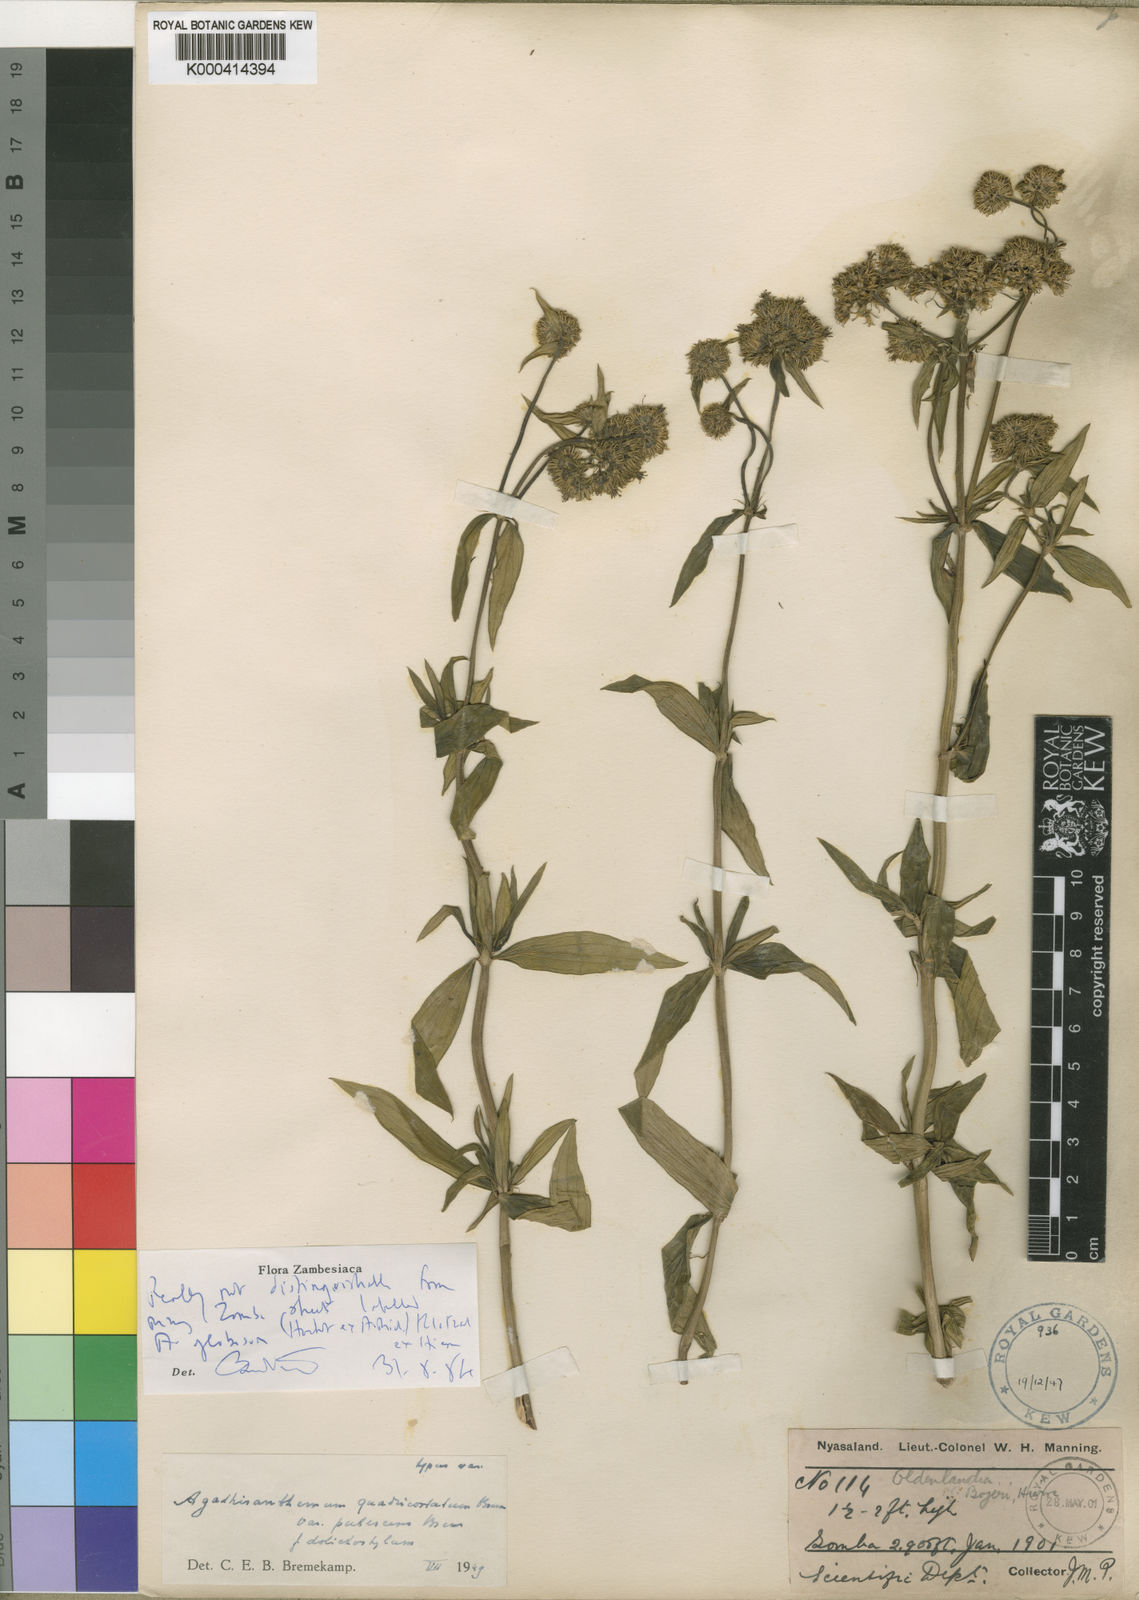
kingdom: Plantae
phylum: Tracheophyta
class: Magnoliopsida
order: Gentianales
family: Rubiaceae
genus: Agathisanthemum
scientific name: Agathisanthemum globosum
